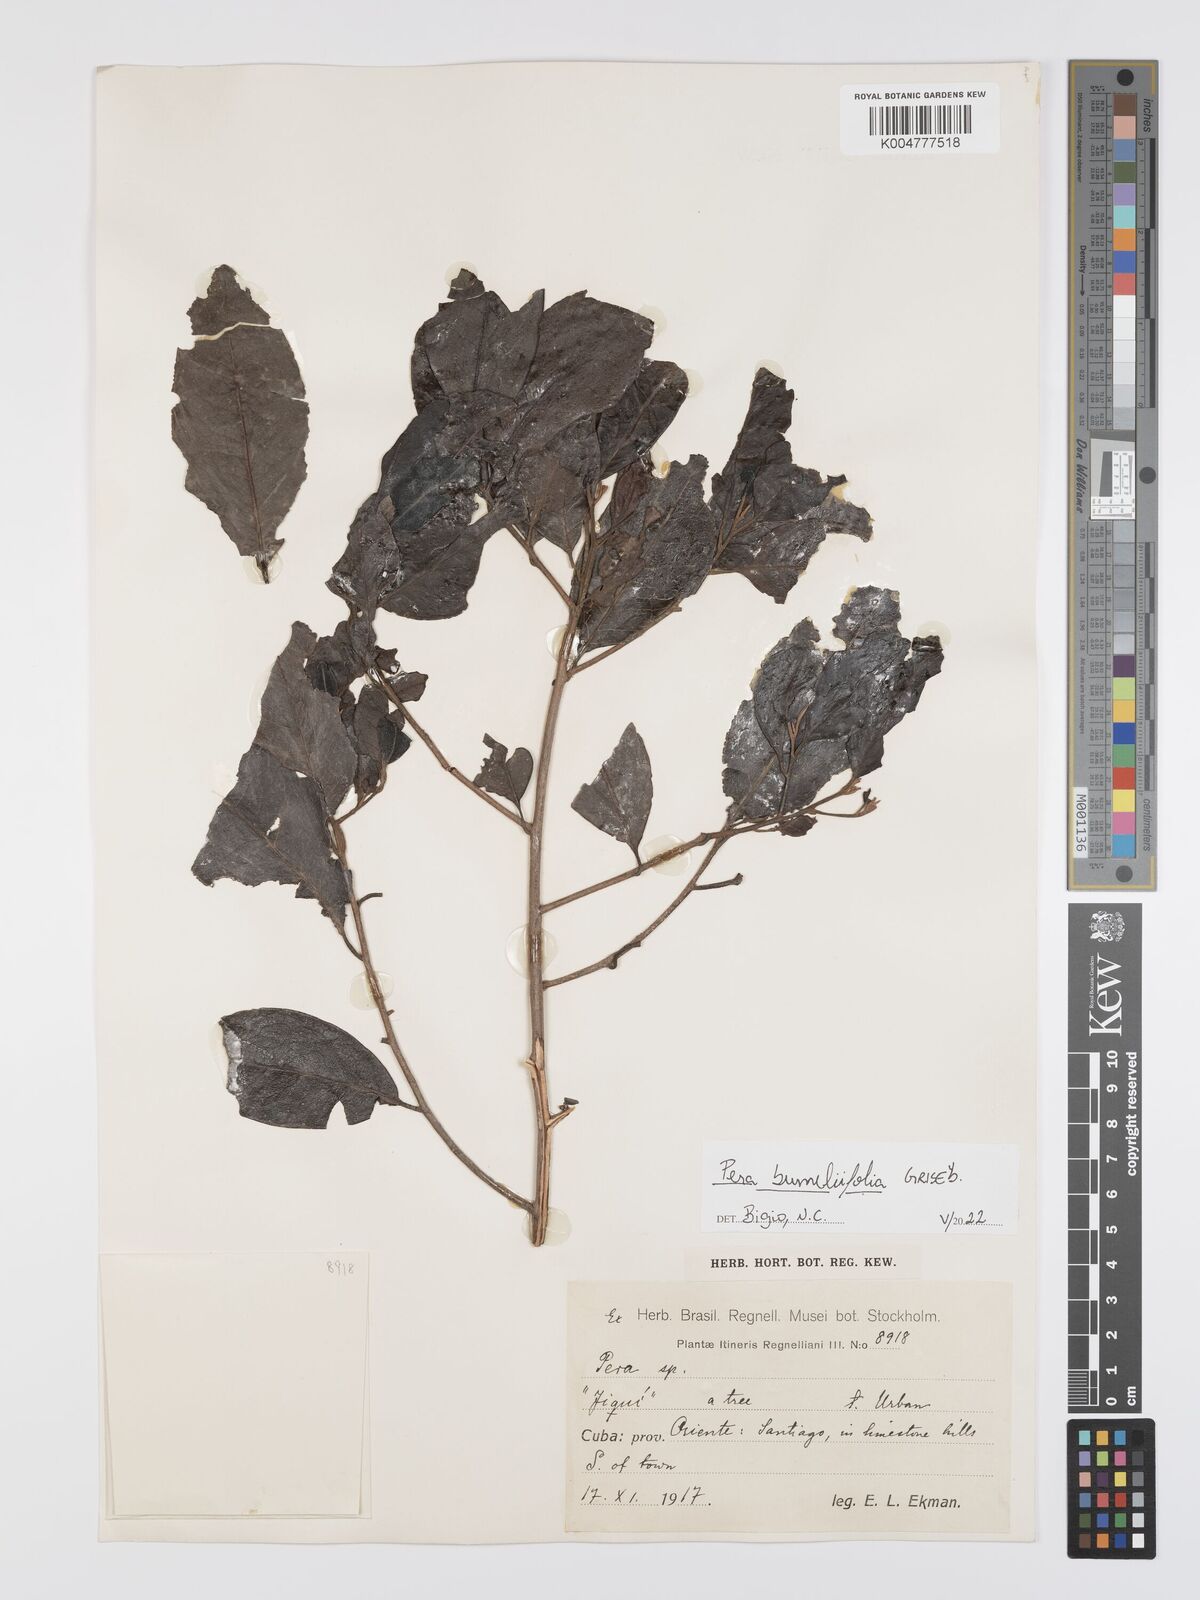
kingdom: Plantae
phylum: Tracheophyta
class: Magnoliopsida
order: Malpighiales
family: Peraceae
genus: Pera
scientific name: Pera
